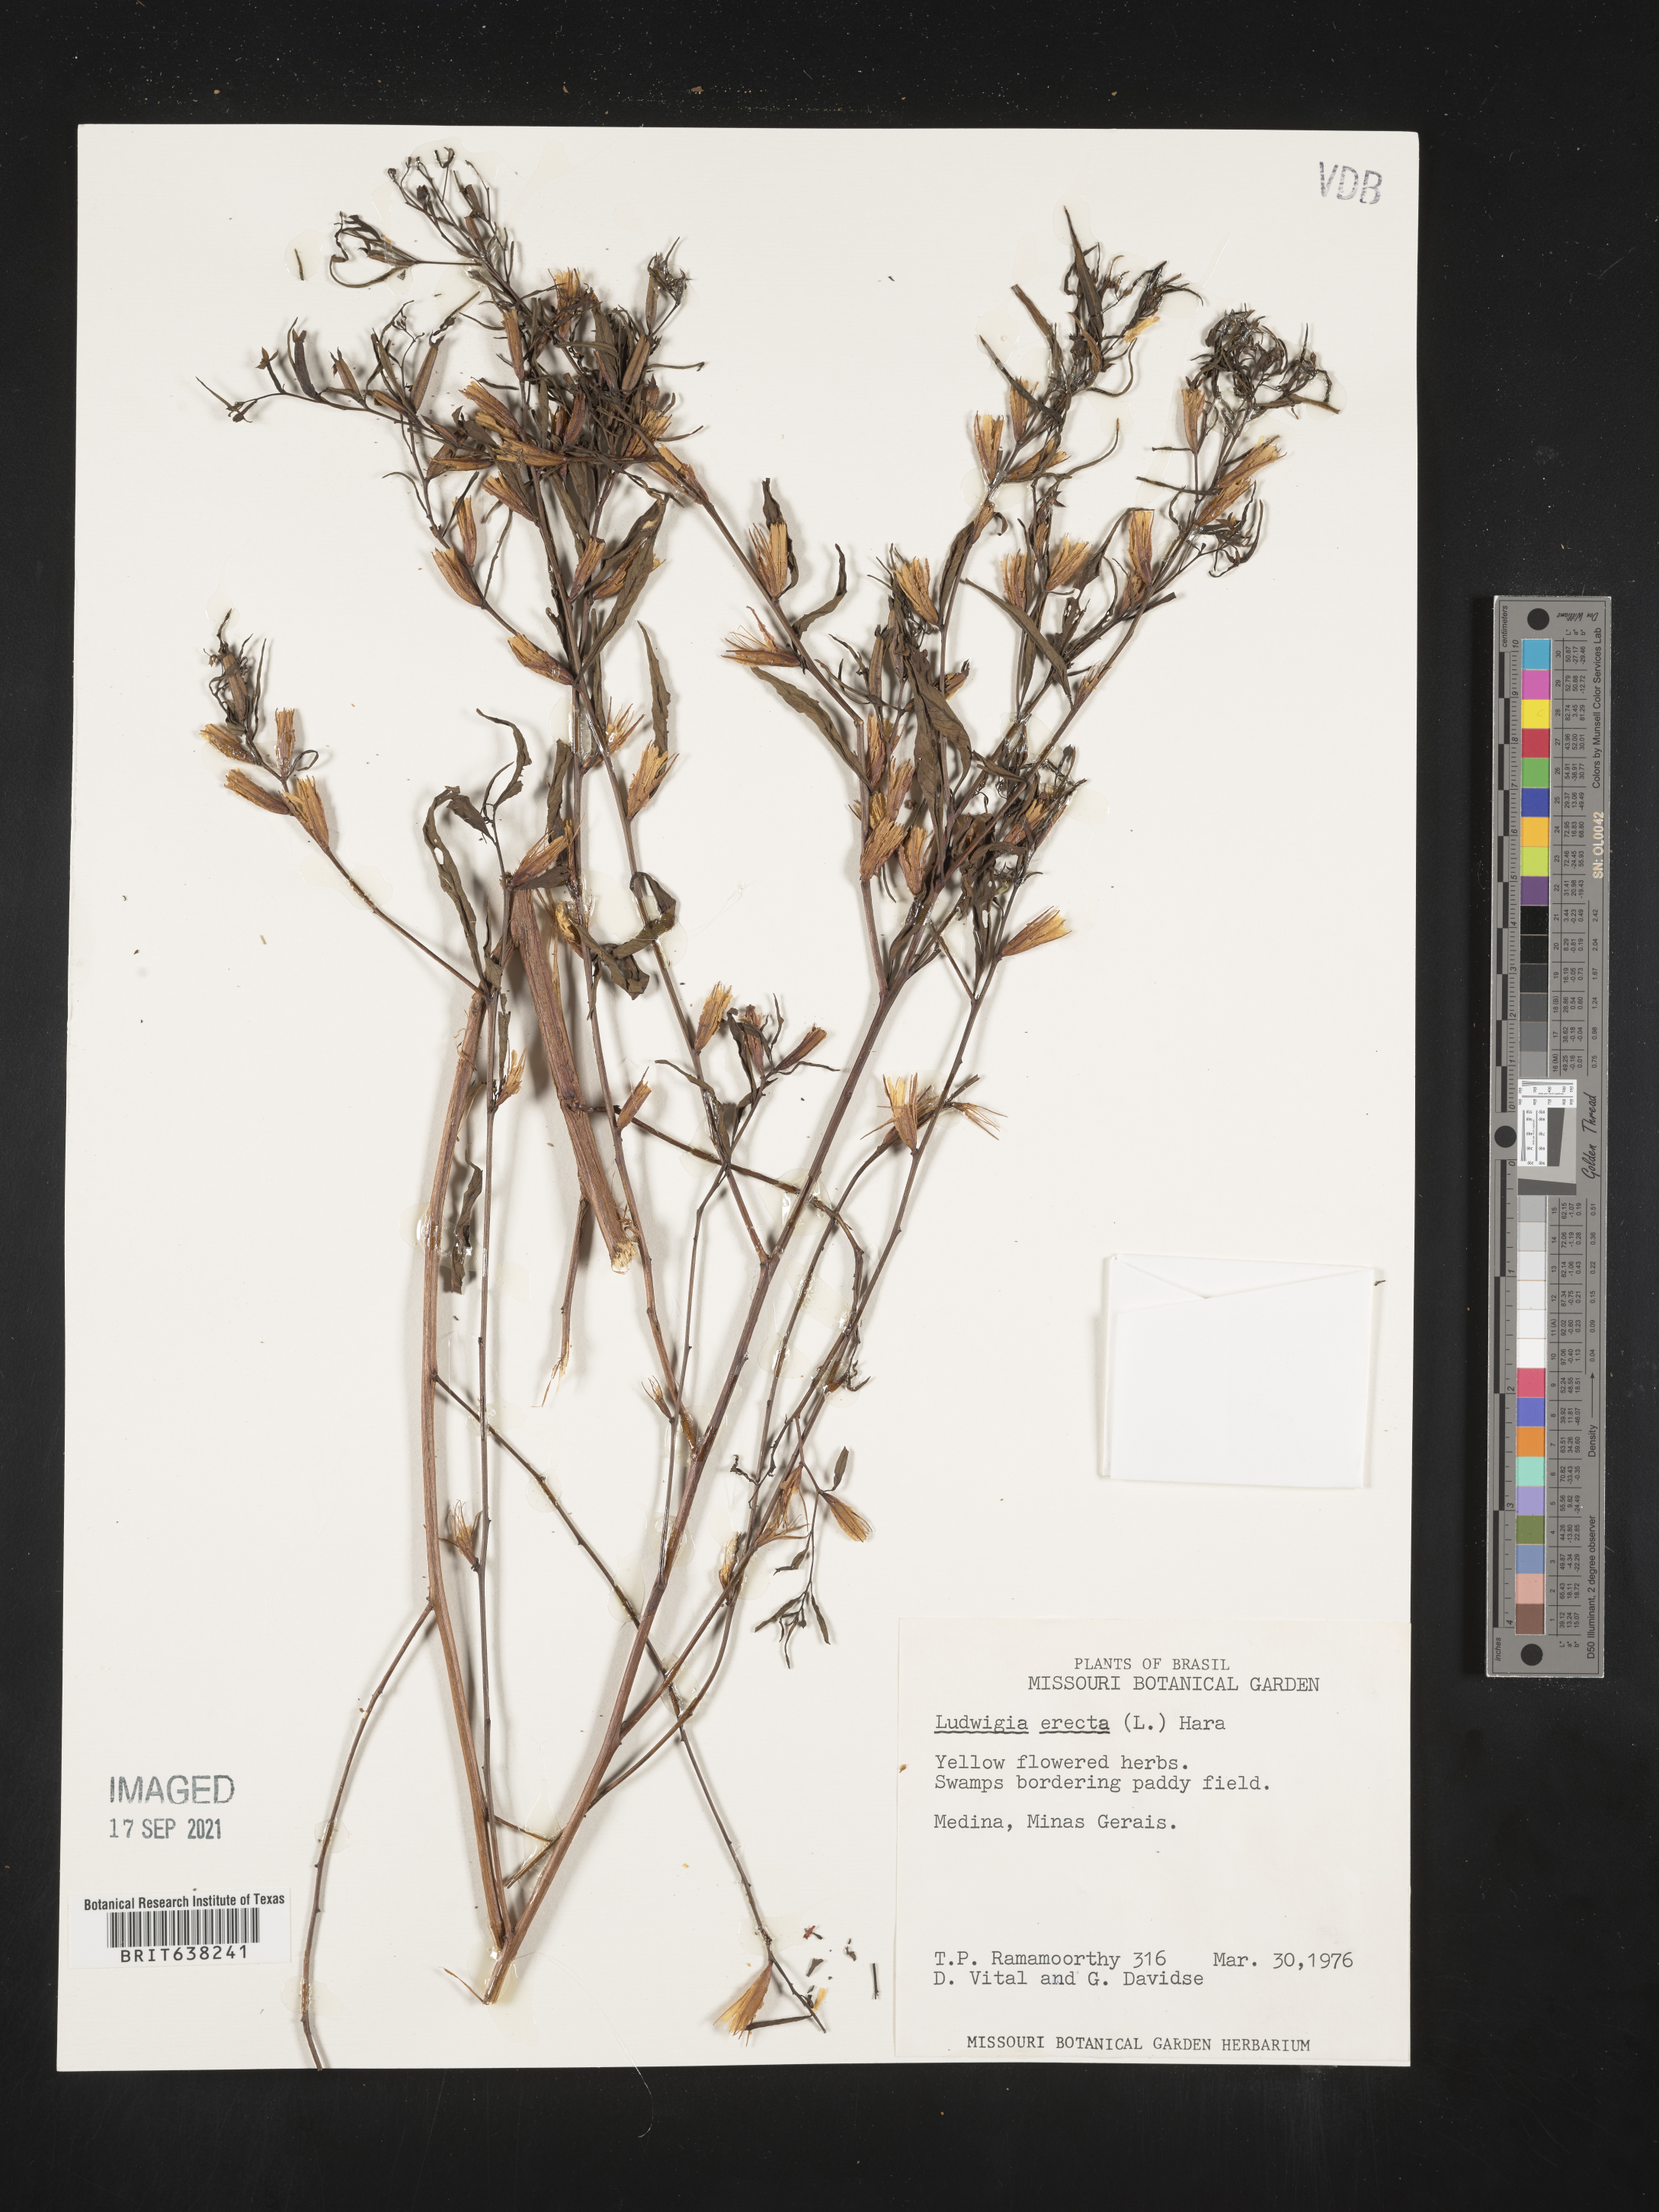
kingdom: Plantae
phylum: Tracheophyta
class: Magnoliopsida
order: Myrtales
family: Onagraceae
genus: Ludwigia
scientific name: Ludwigia
